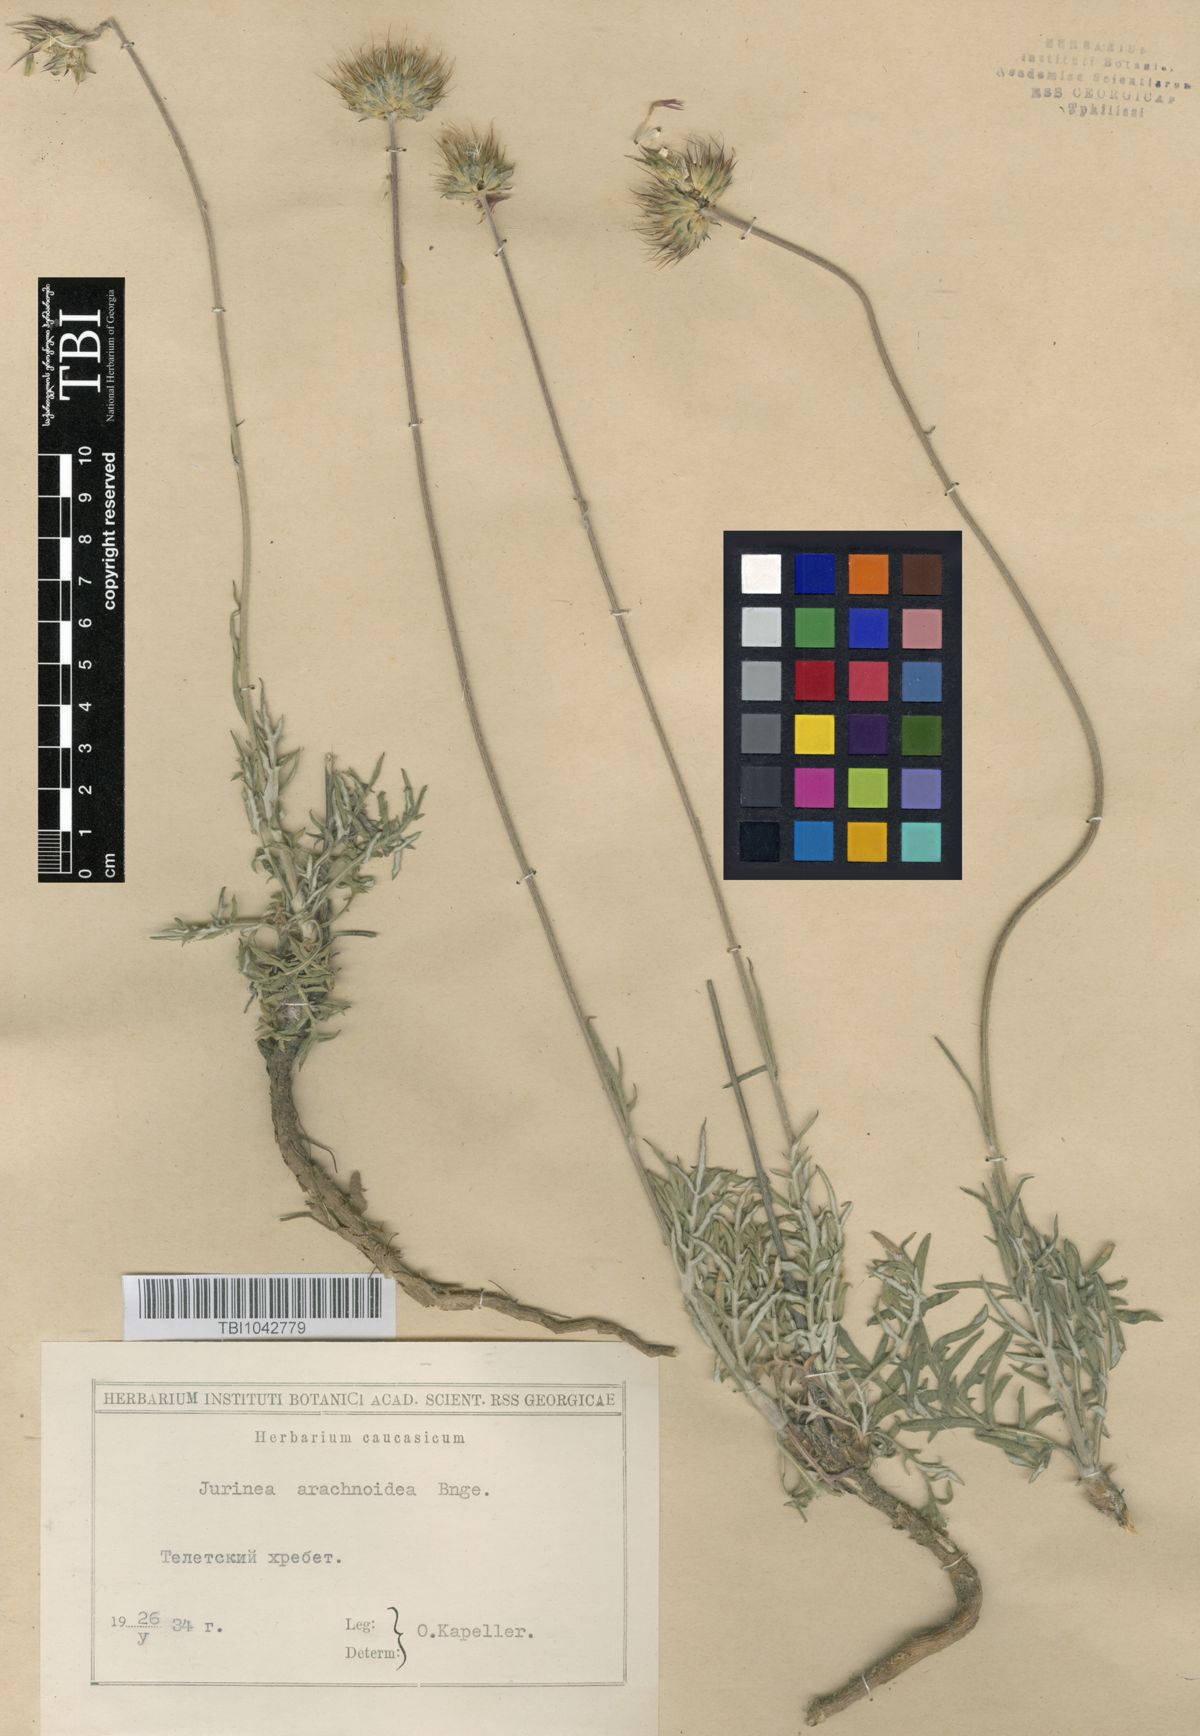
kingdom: Plantae
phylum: Tracheophyta
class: Magnoliopsida
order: Asterales
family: Asteraceae
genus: Jurinea
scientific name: Jurinea blanda
